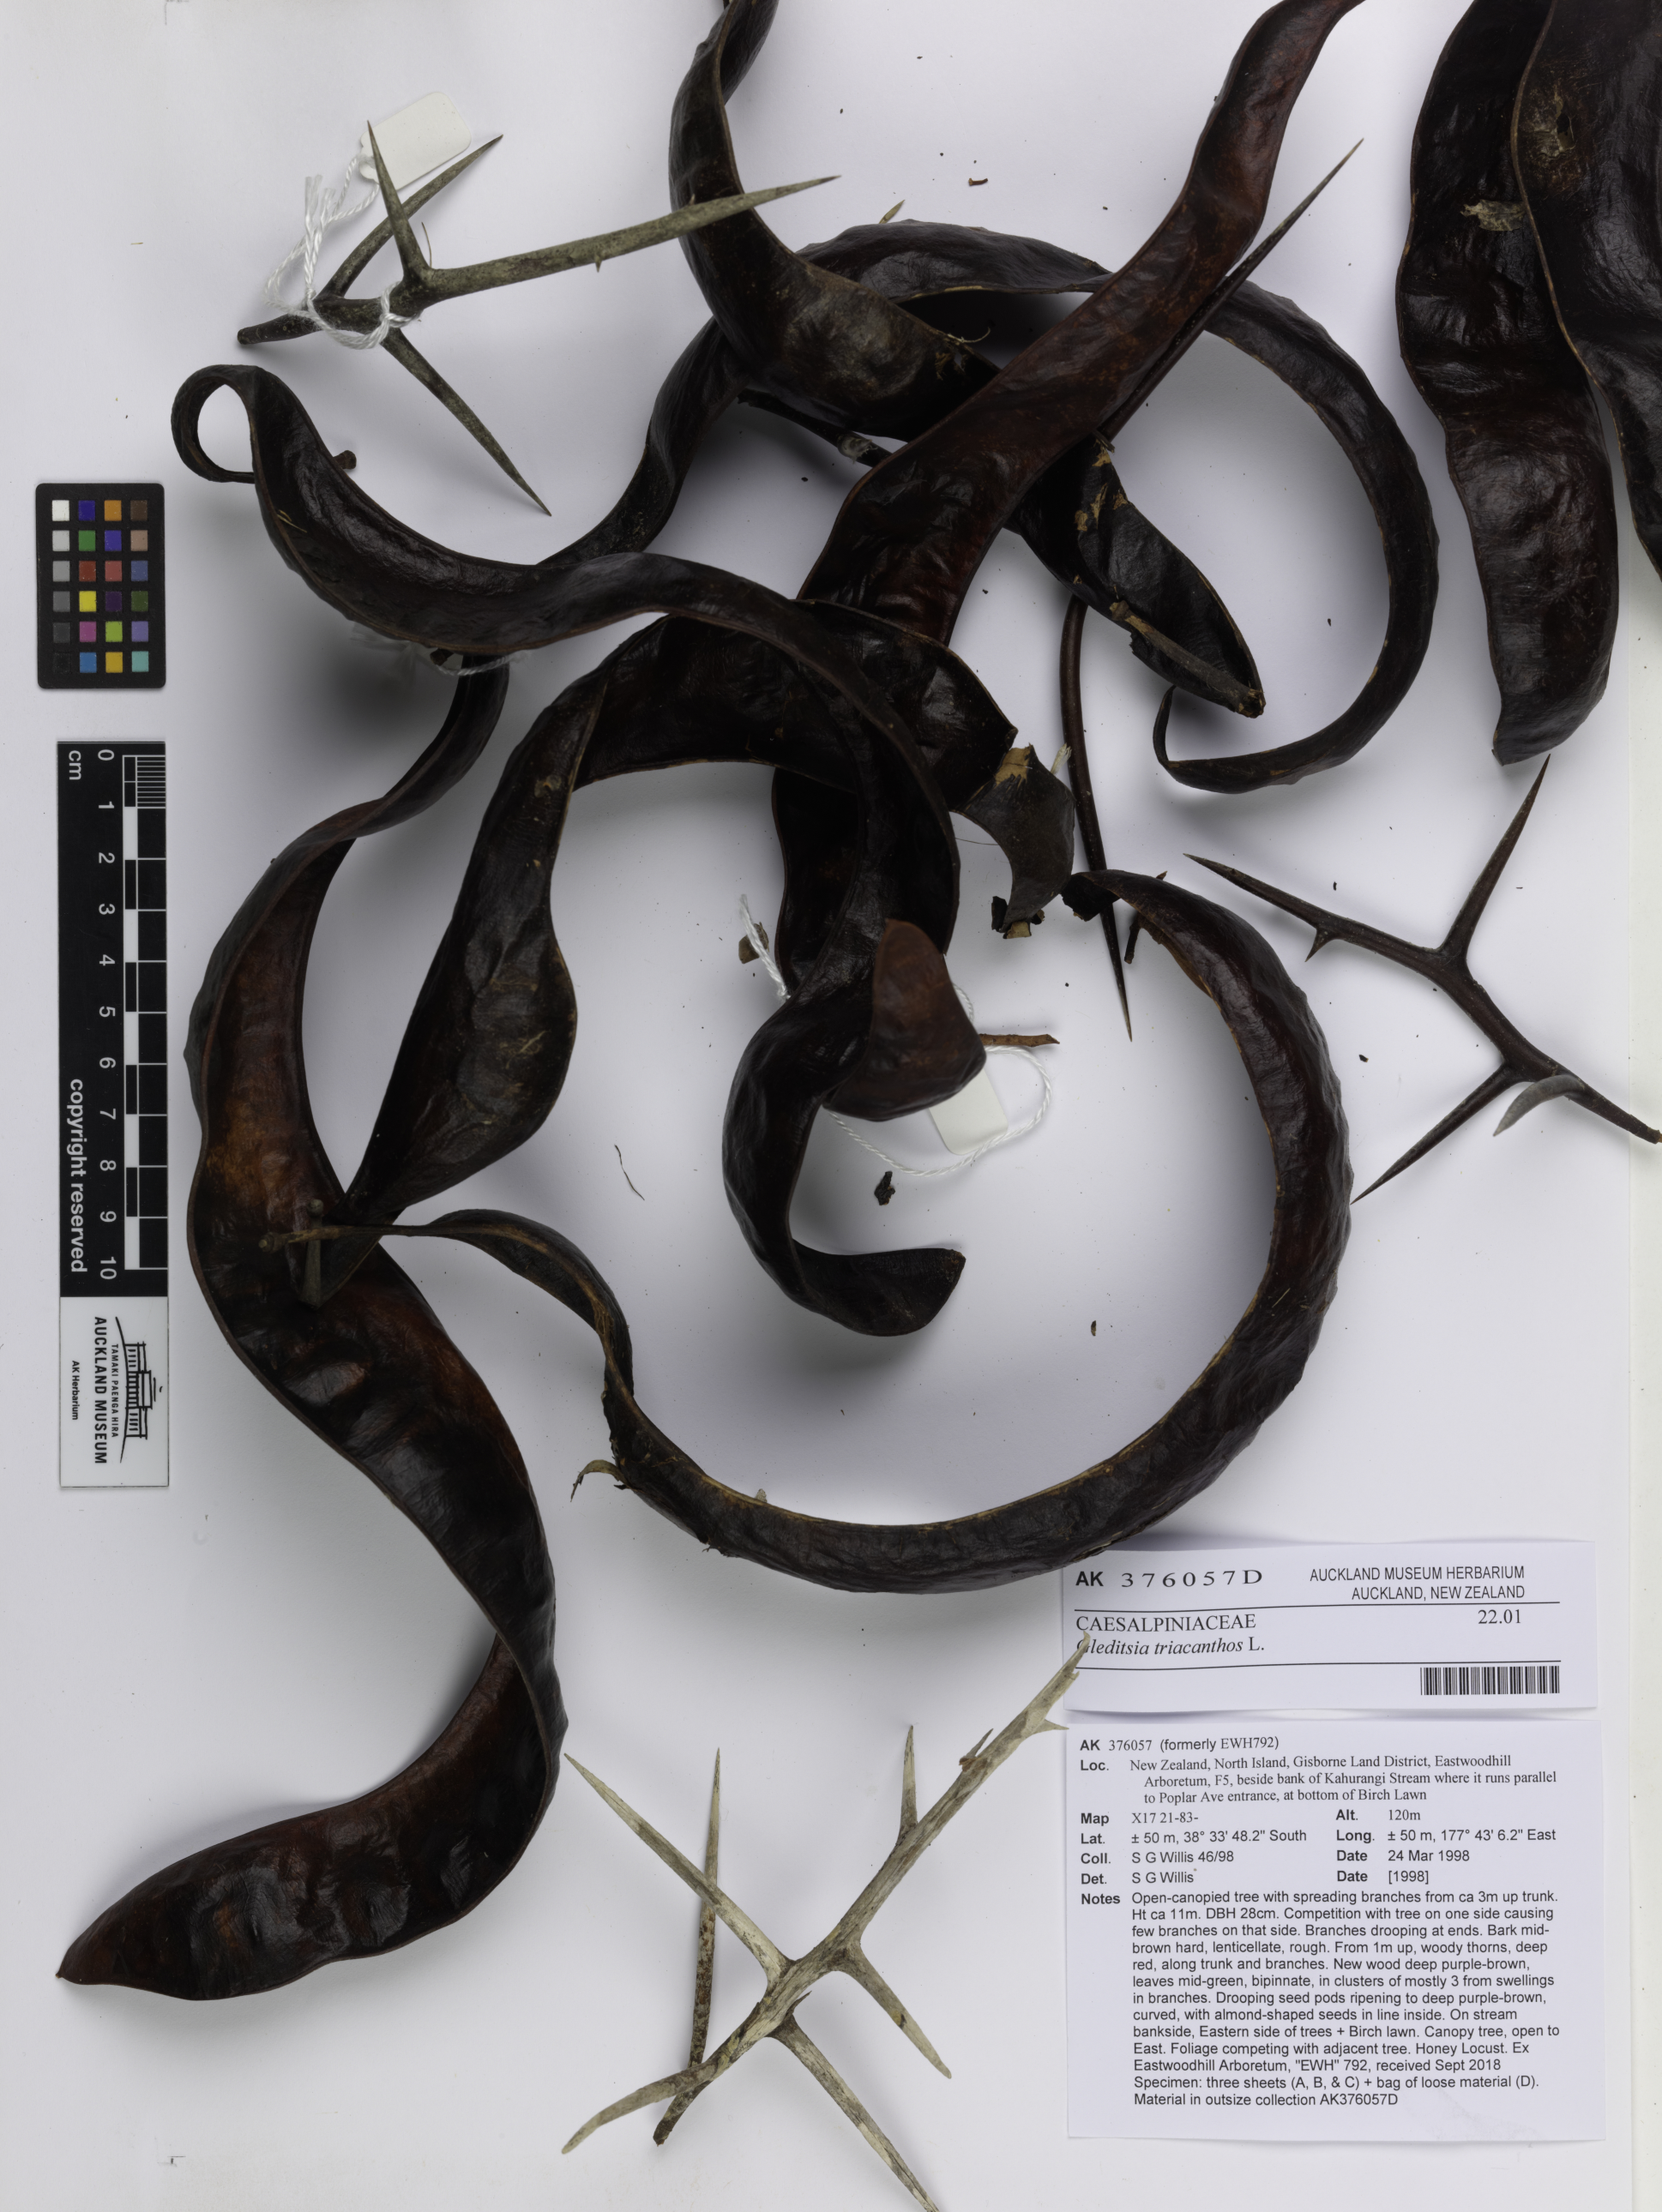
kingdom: Plantae
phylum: Tracheophyta
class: Magnoliopsida
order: Fabales
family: Fabaceae
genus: Gleditsia
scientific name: Gleditsia triacanthos
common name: Common honeylocust
